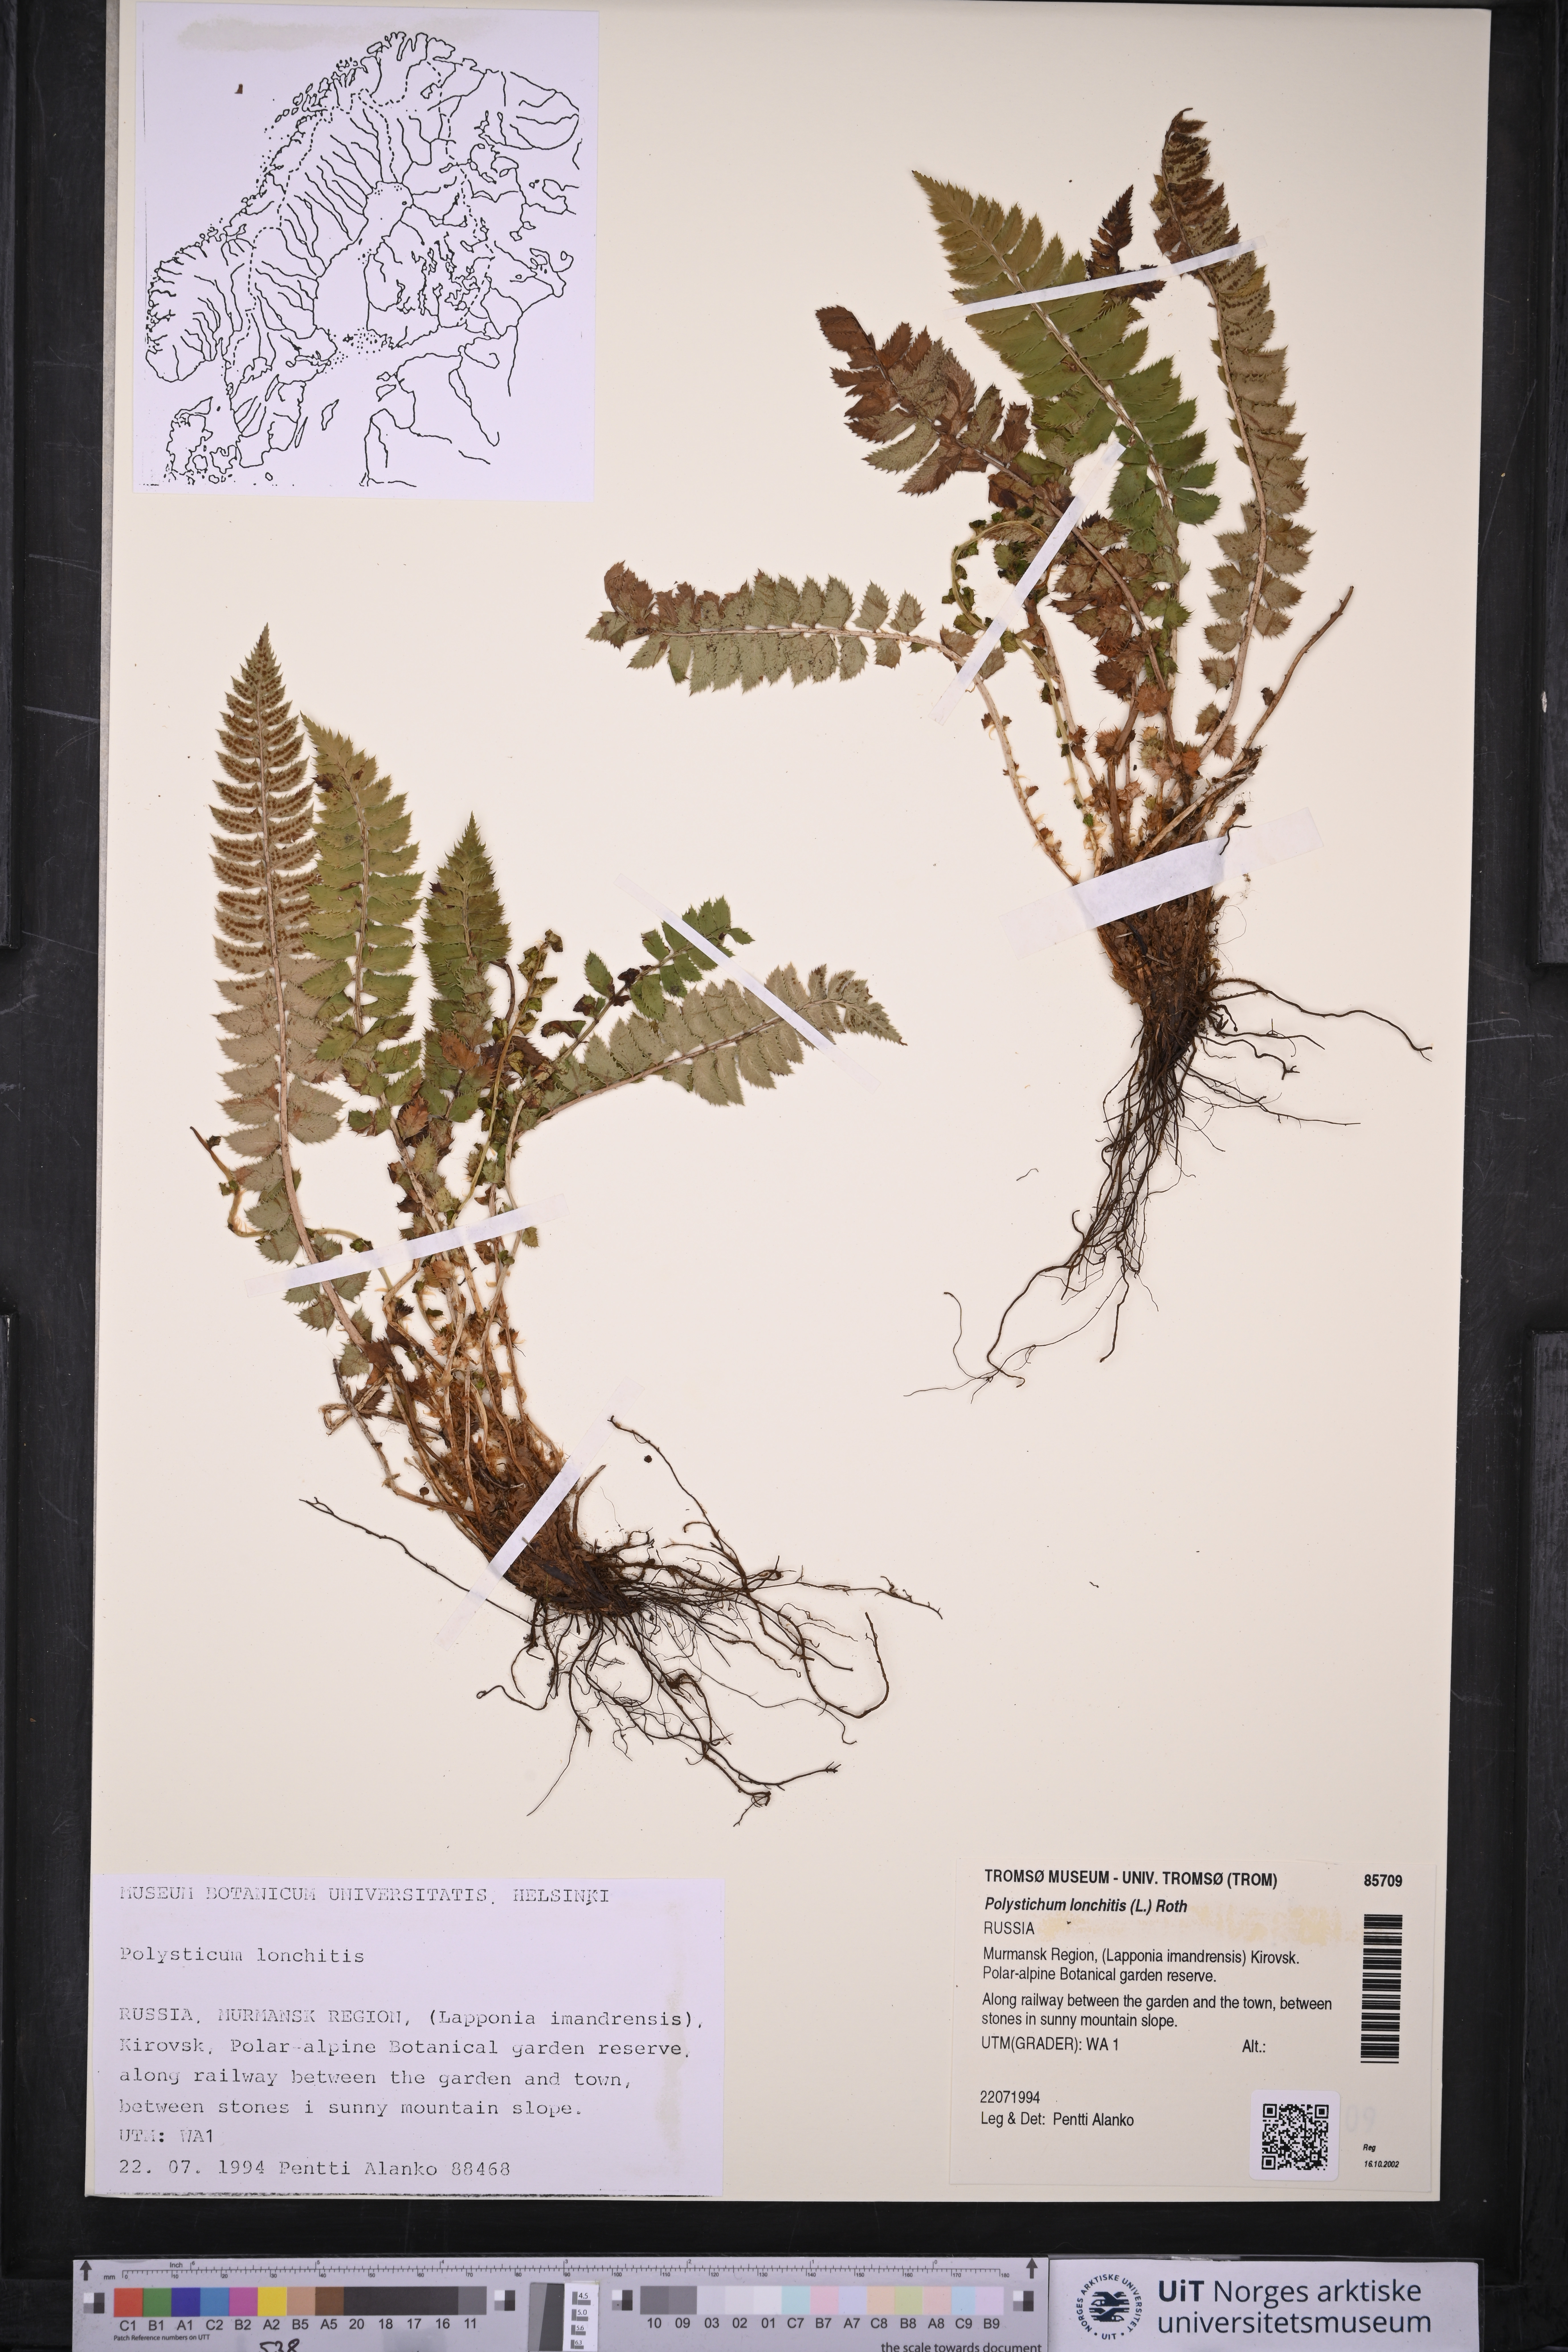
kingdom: Plantae
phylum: Tracheophyta
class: Polypodiopsida
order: Polypodiales
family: Dryopteridaceae
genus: Polystichum
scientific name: Polystichum lonchitis
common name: Holly fern
